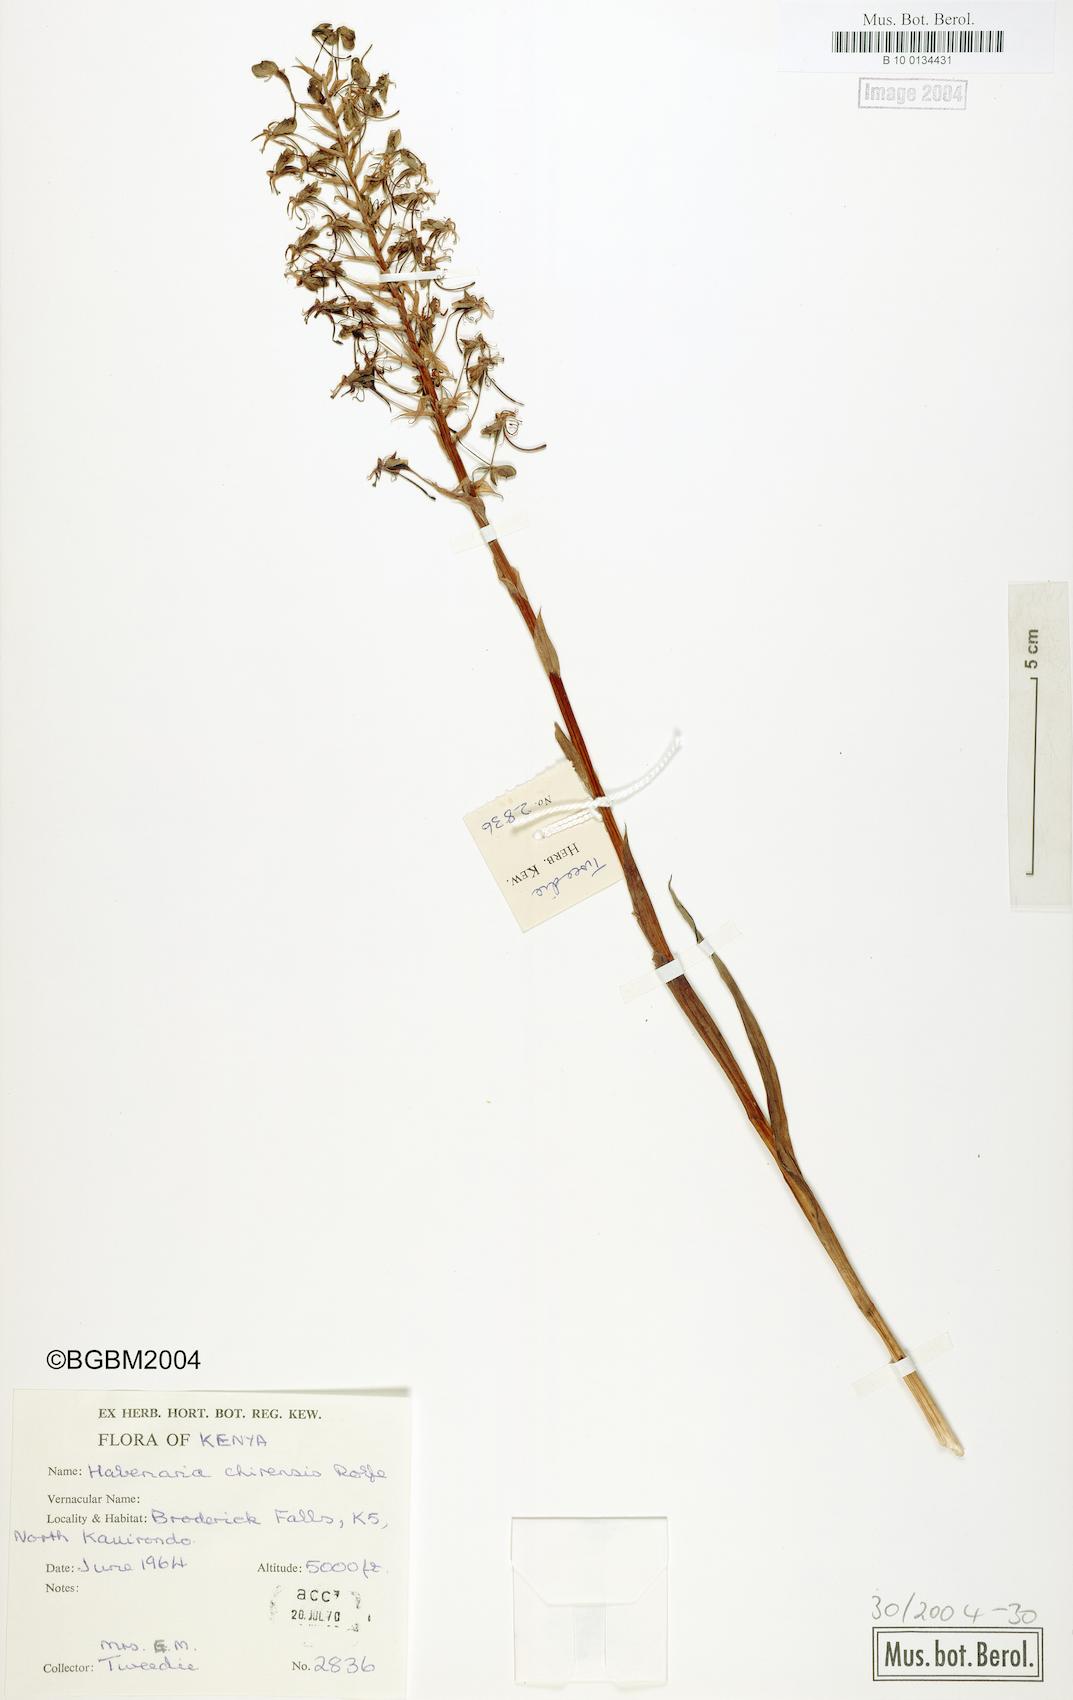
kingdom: Plantae
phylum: Tracheophyta
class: Liliopsida
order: Asparagales
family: Orchidaceae
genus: Habenaria
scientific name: Habenaria chirensis
